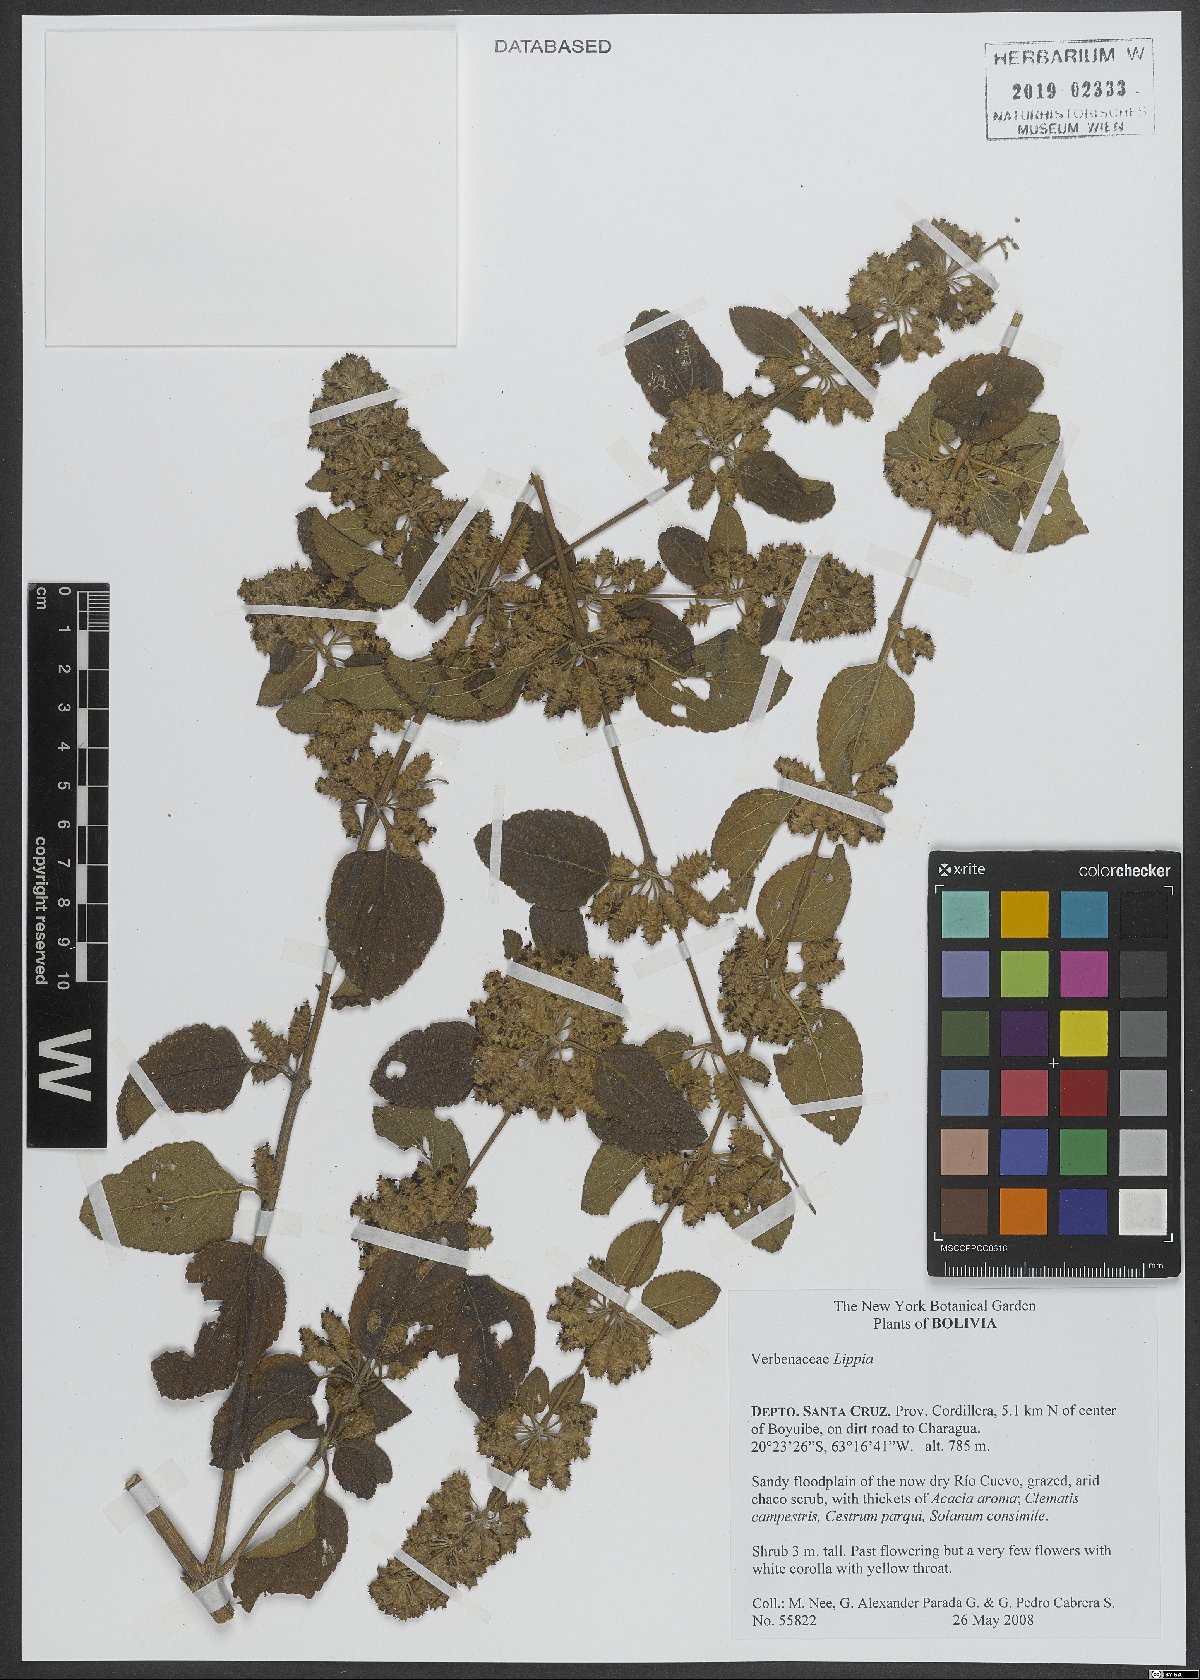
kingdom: Plantae
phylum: Tracheophyta
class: Magnoliopsida
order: Lamiales
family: Verbenaceae
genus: Lippia
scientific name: Lippia
